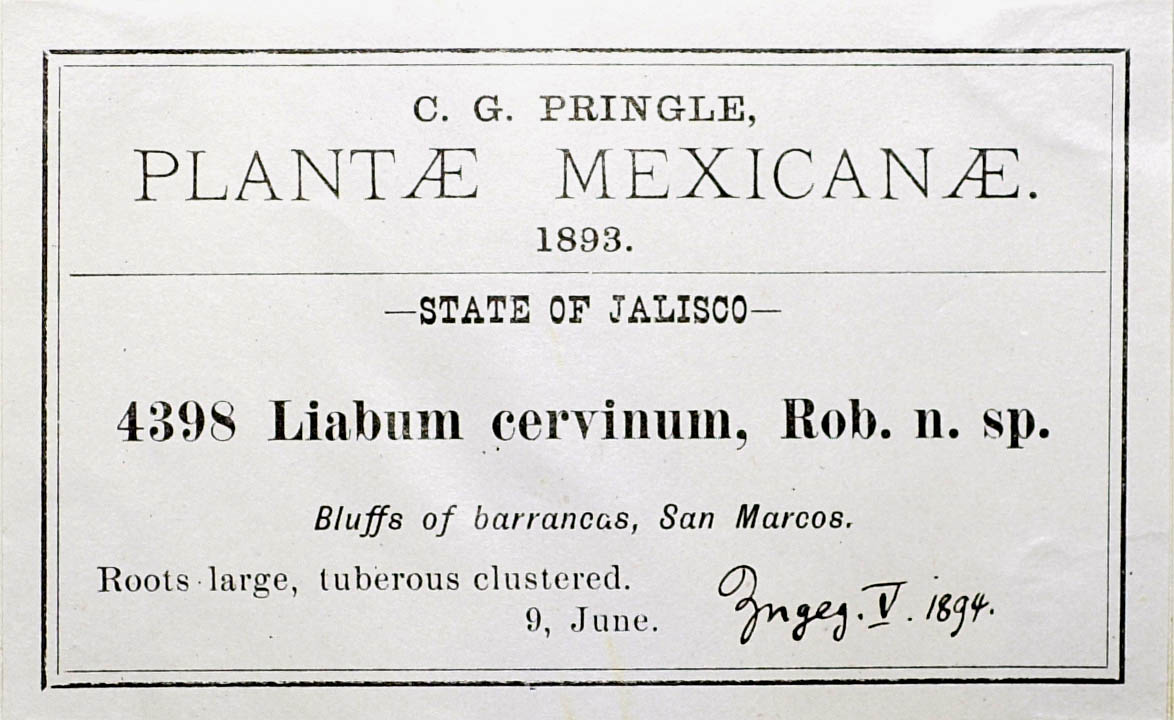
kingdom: Plantae
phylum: Tracheophyta
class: Magnoliopsida
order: Asterales
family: Asteraceae
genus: Sinclairia
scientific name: Sinclairia cervina
